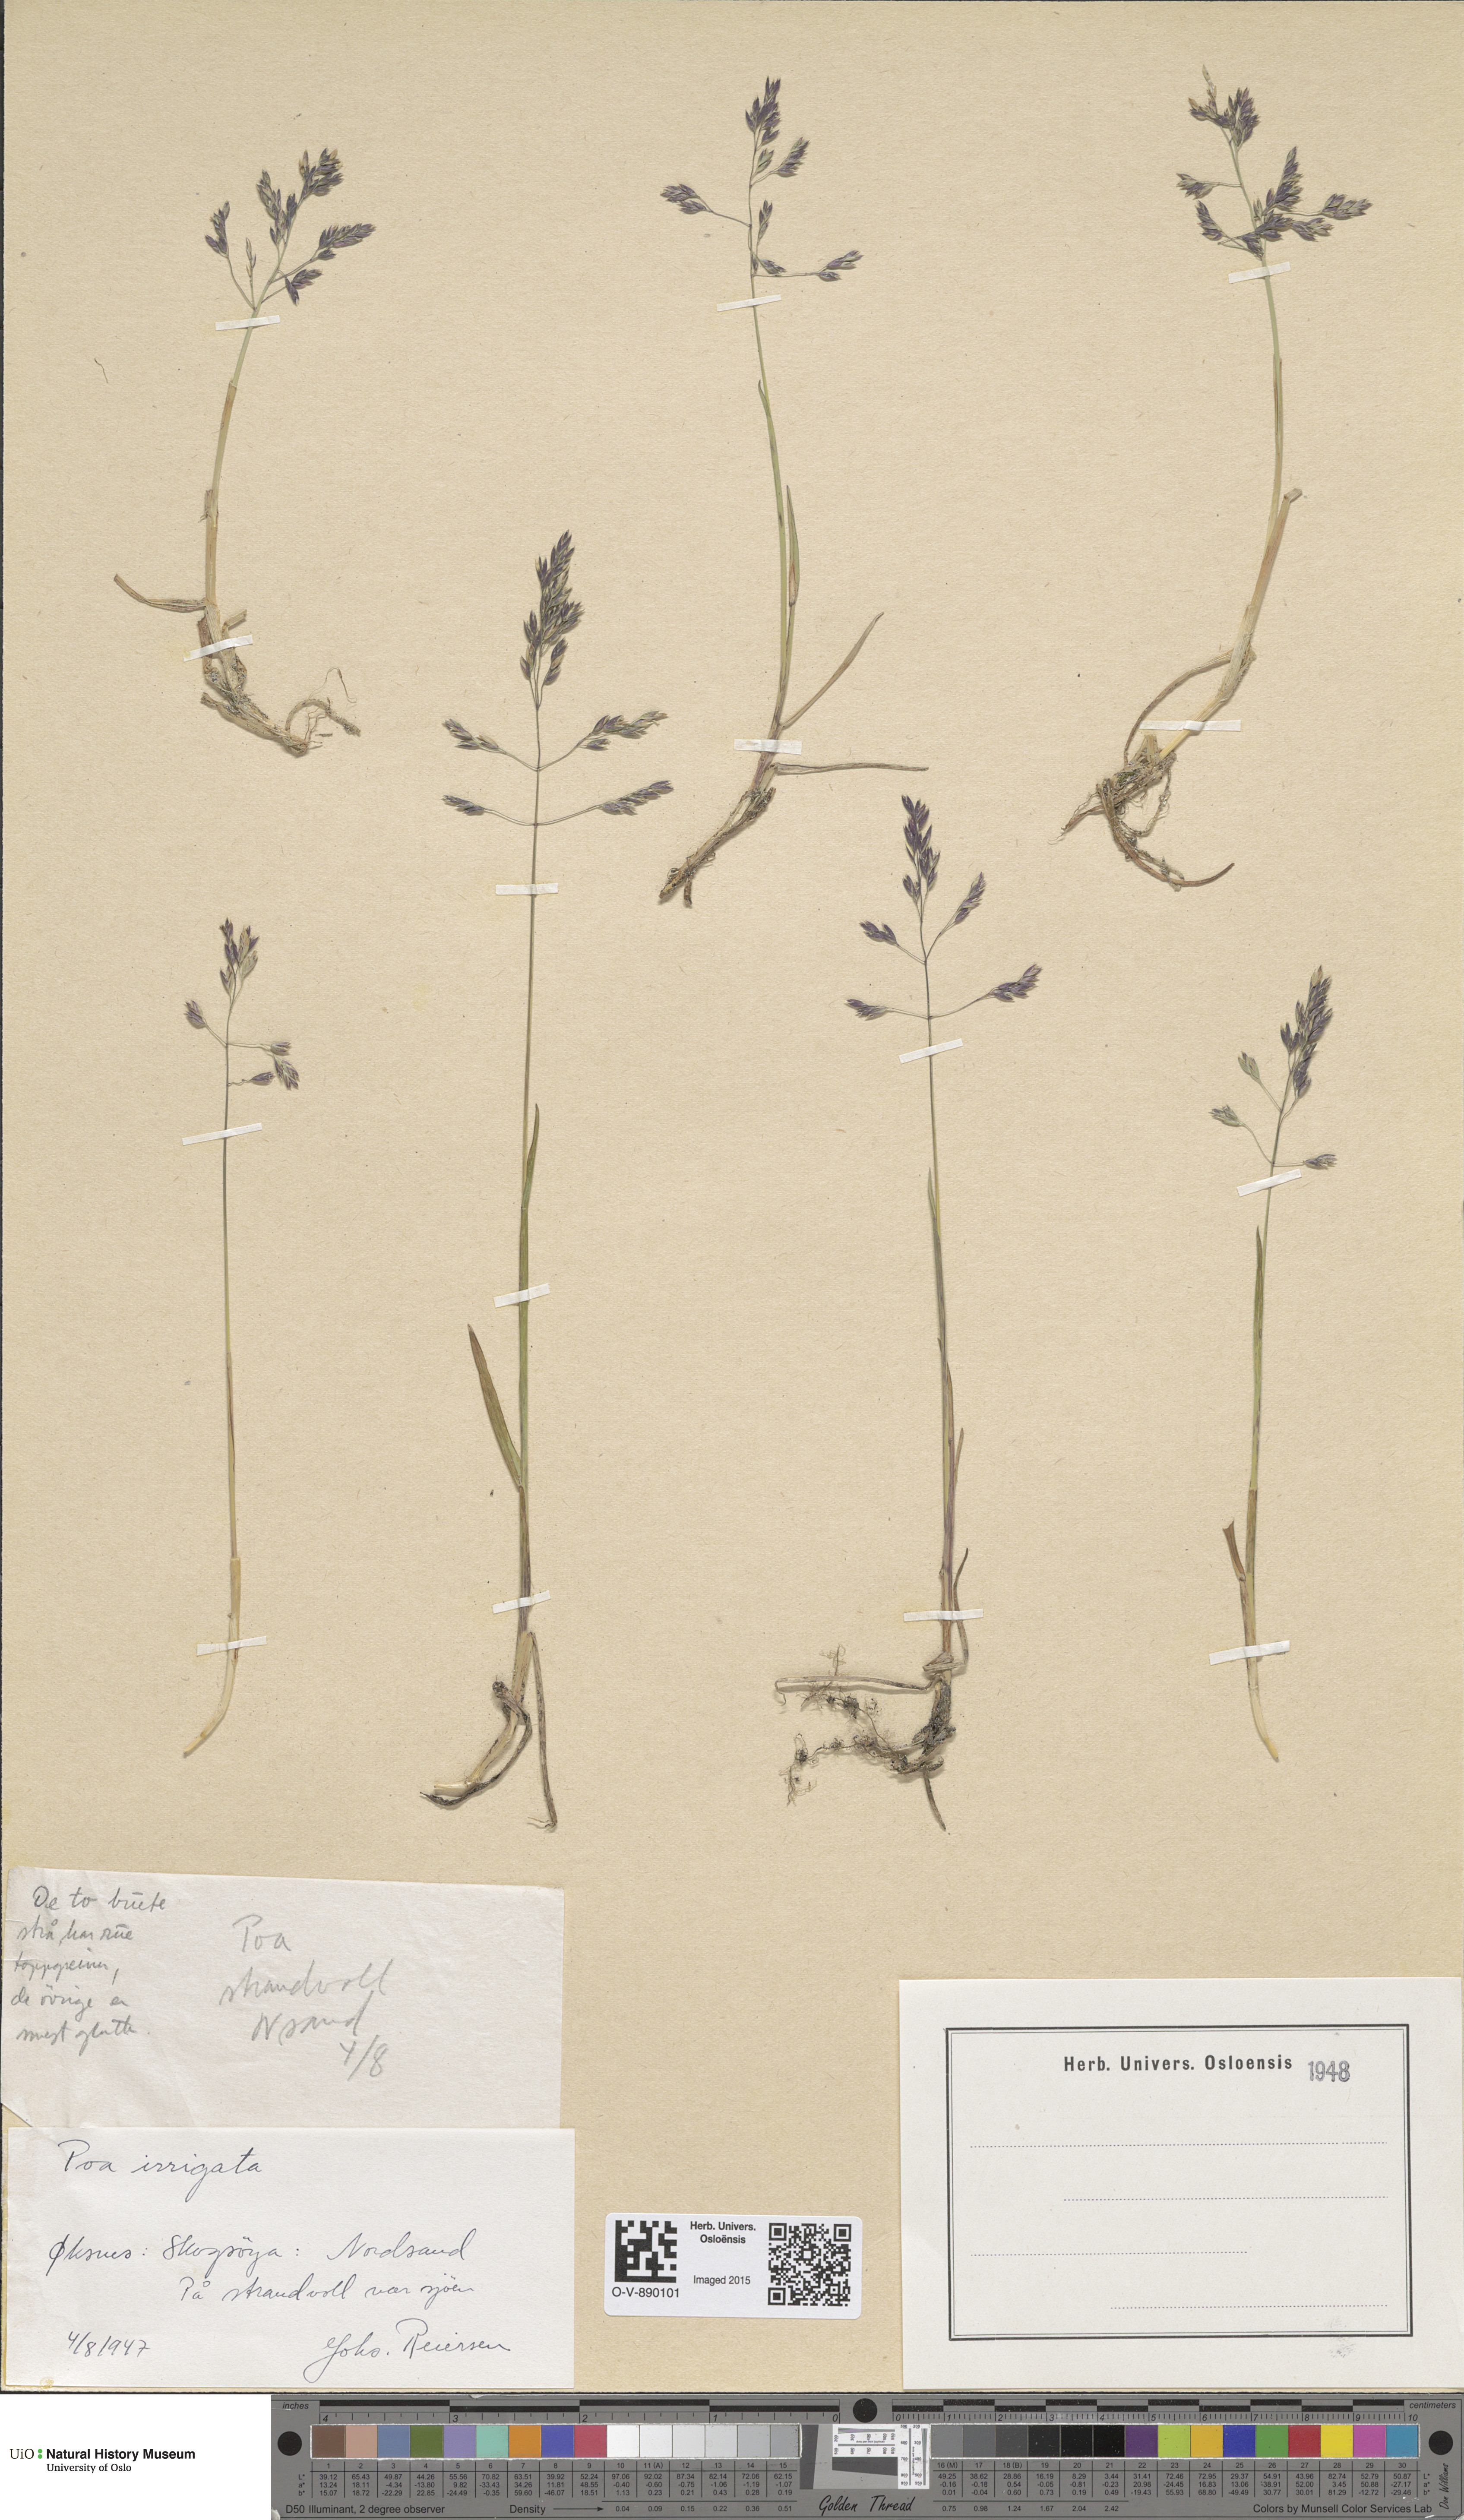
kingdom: Plantae
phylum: Tracheophyta
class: Liliopsida
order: Poales
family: Poaceae
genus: Poa
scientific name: Poa humilis
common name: Spreading meadow-grass
